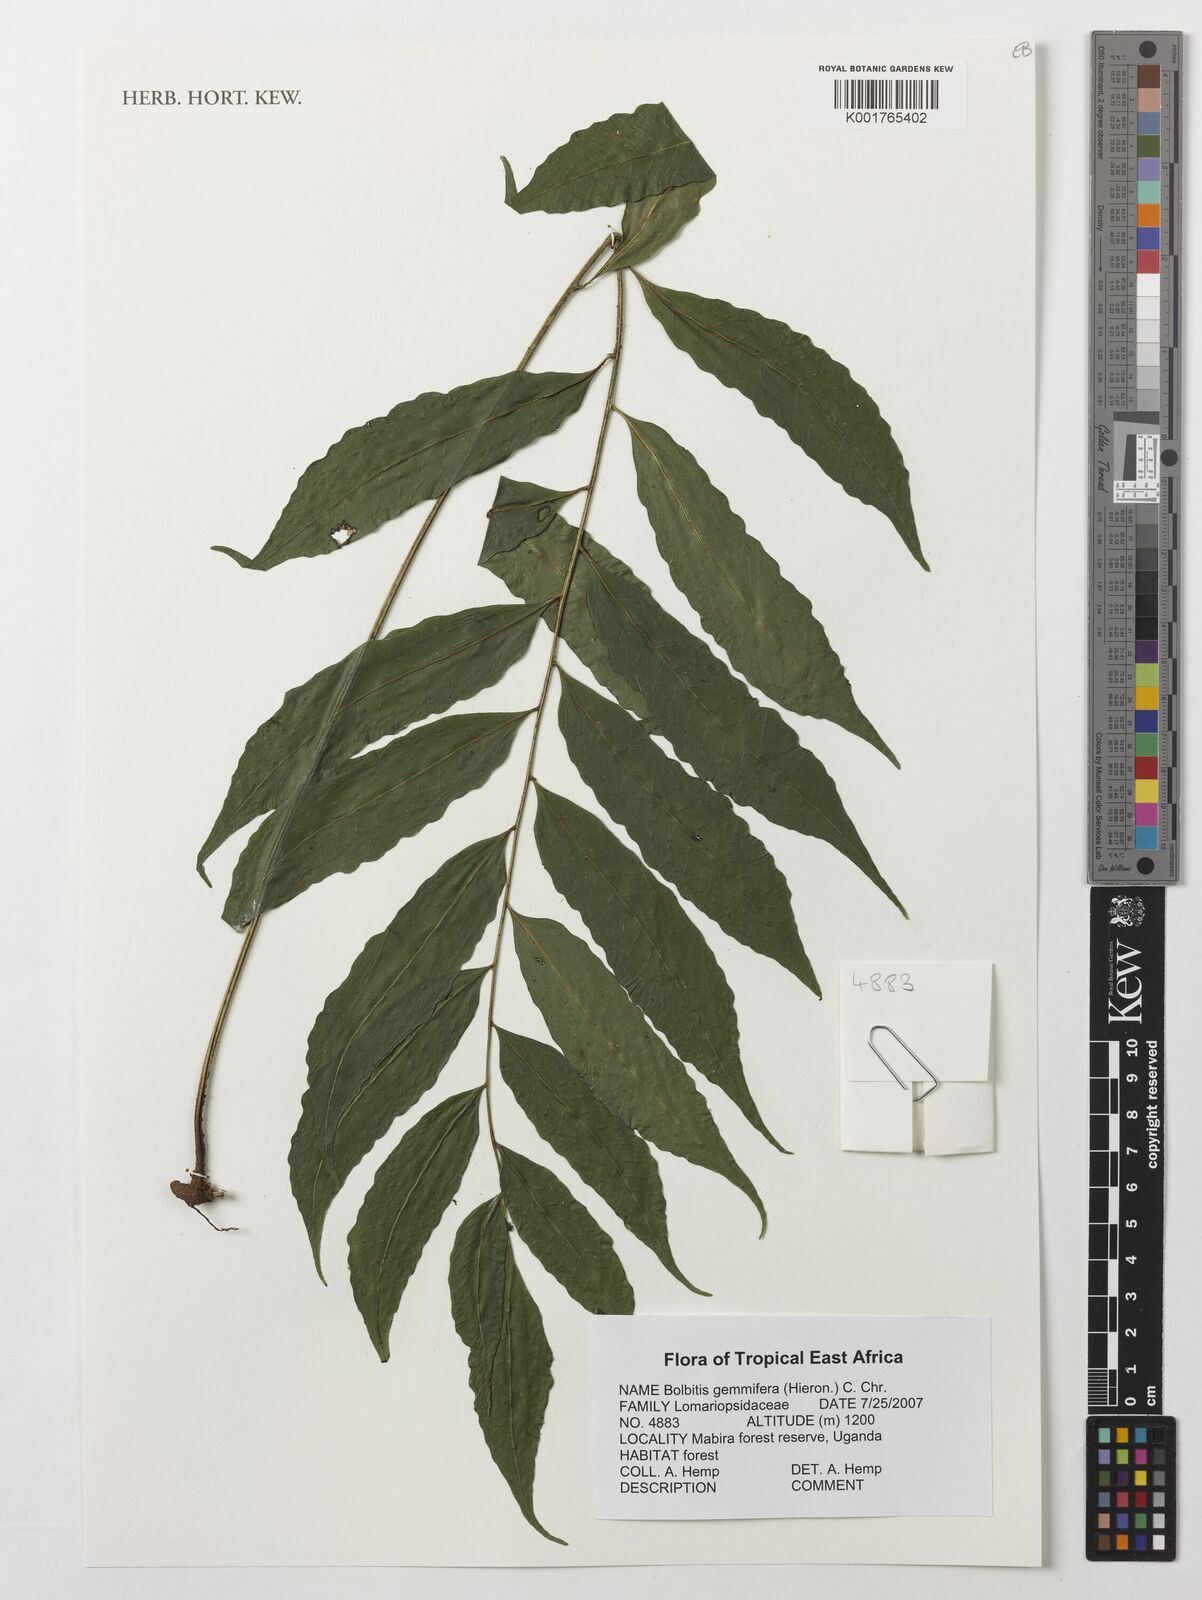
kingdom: Plantae
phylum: Tracheophyta
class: Polypodiopsida
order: Polypodiales
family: Dryopteridaceae
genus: Bolbitis
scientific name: Bolbitis gemmifer
